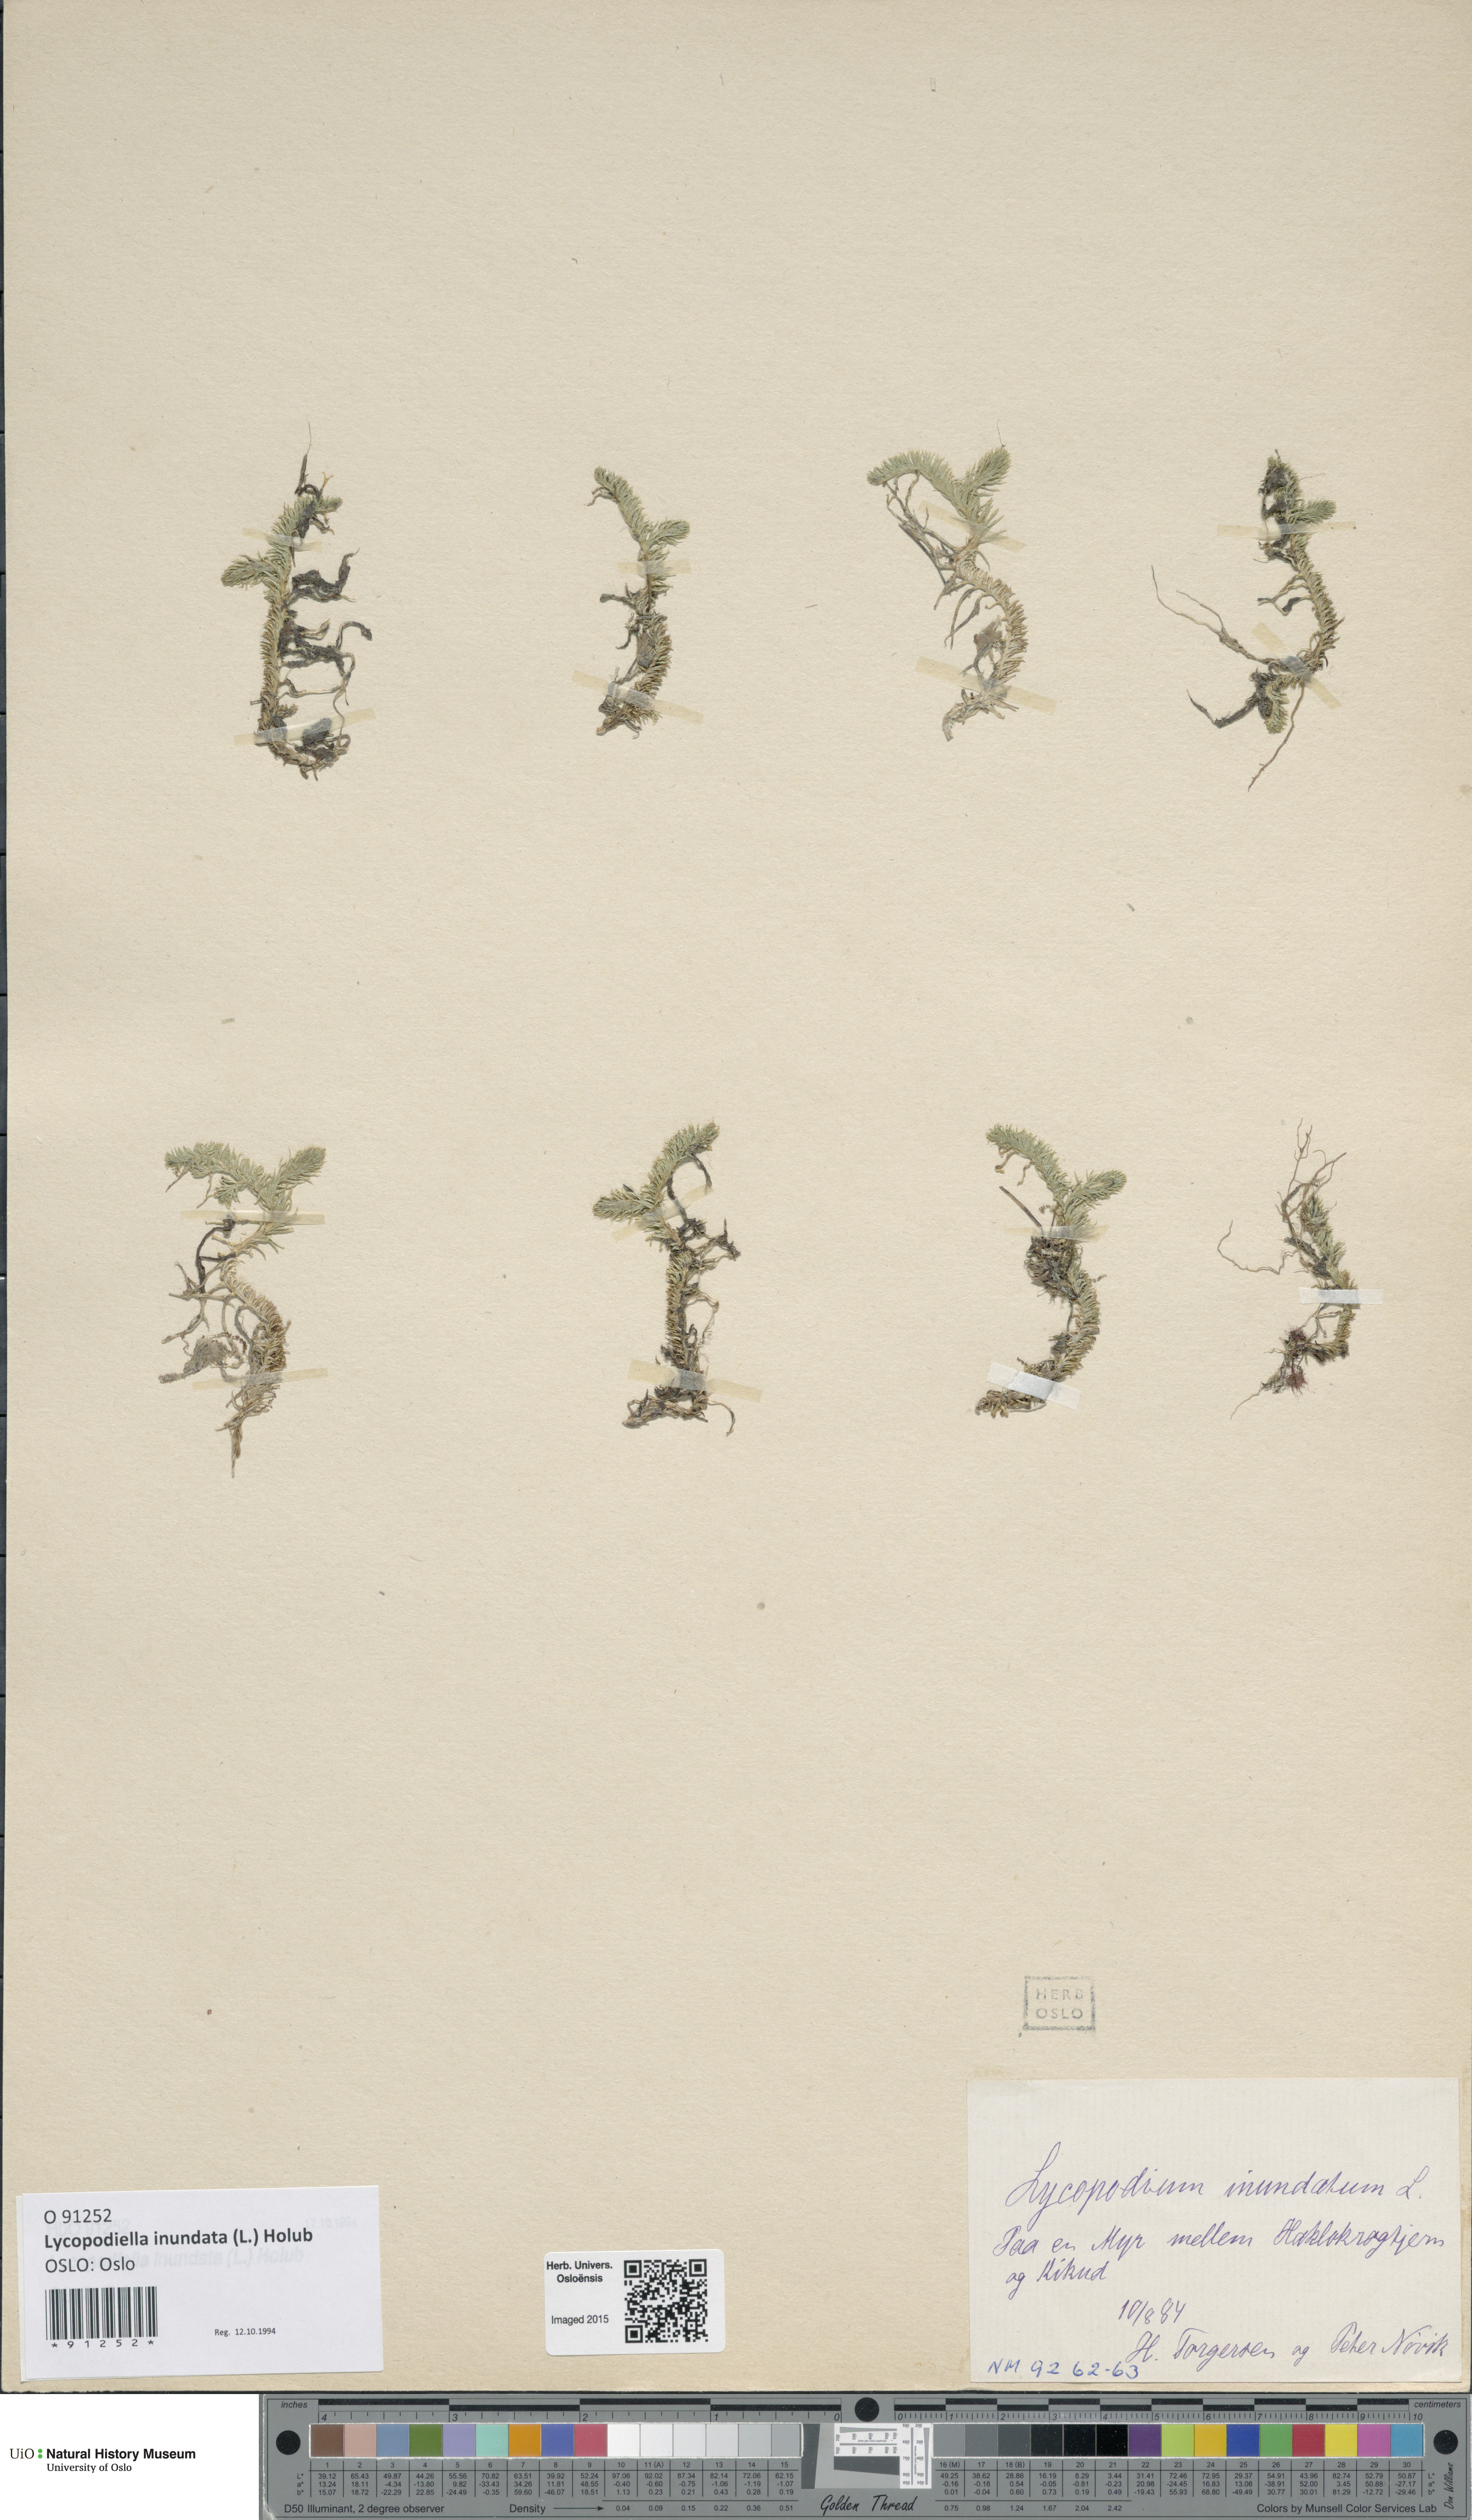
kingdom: Plantae
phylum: Tracheophyta
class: Lycopodiopsida
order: Lycopodiales
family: Lycopodiaceae
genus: Lycopodiella
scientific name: Lycopodiella inundata
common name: Marsh clubmoss
